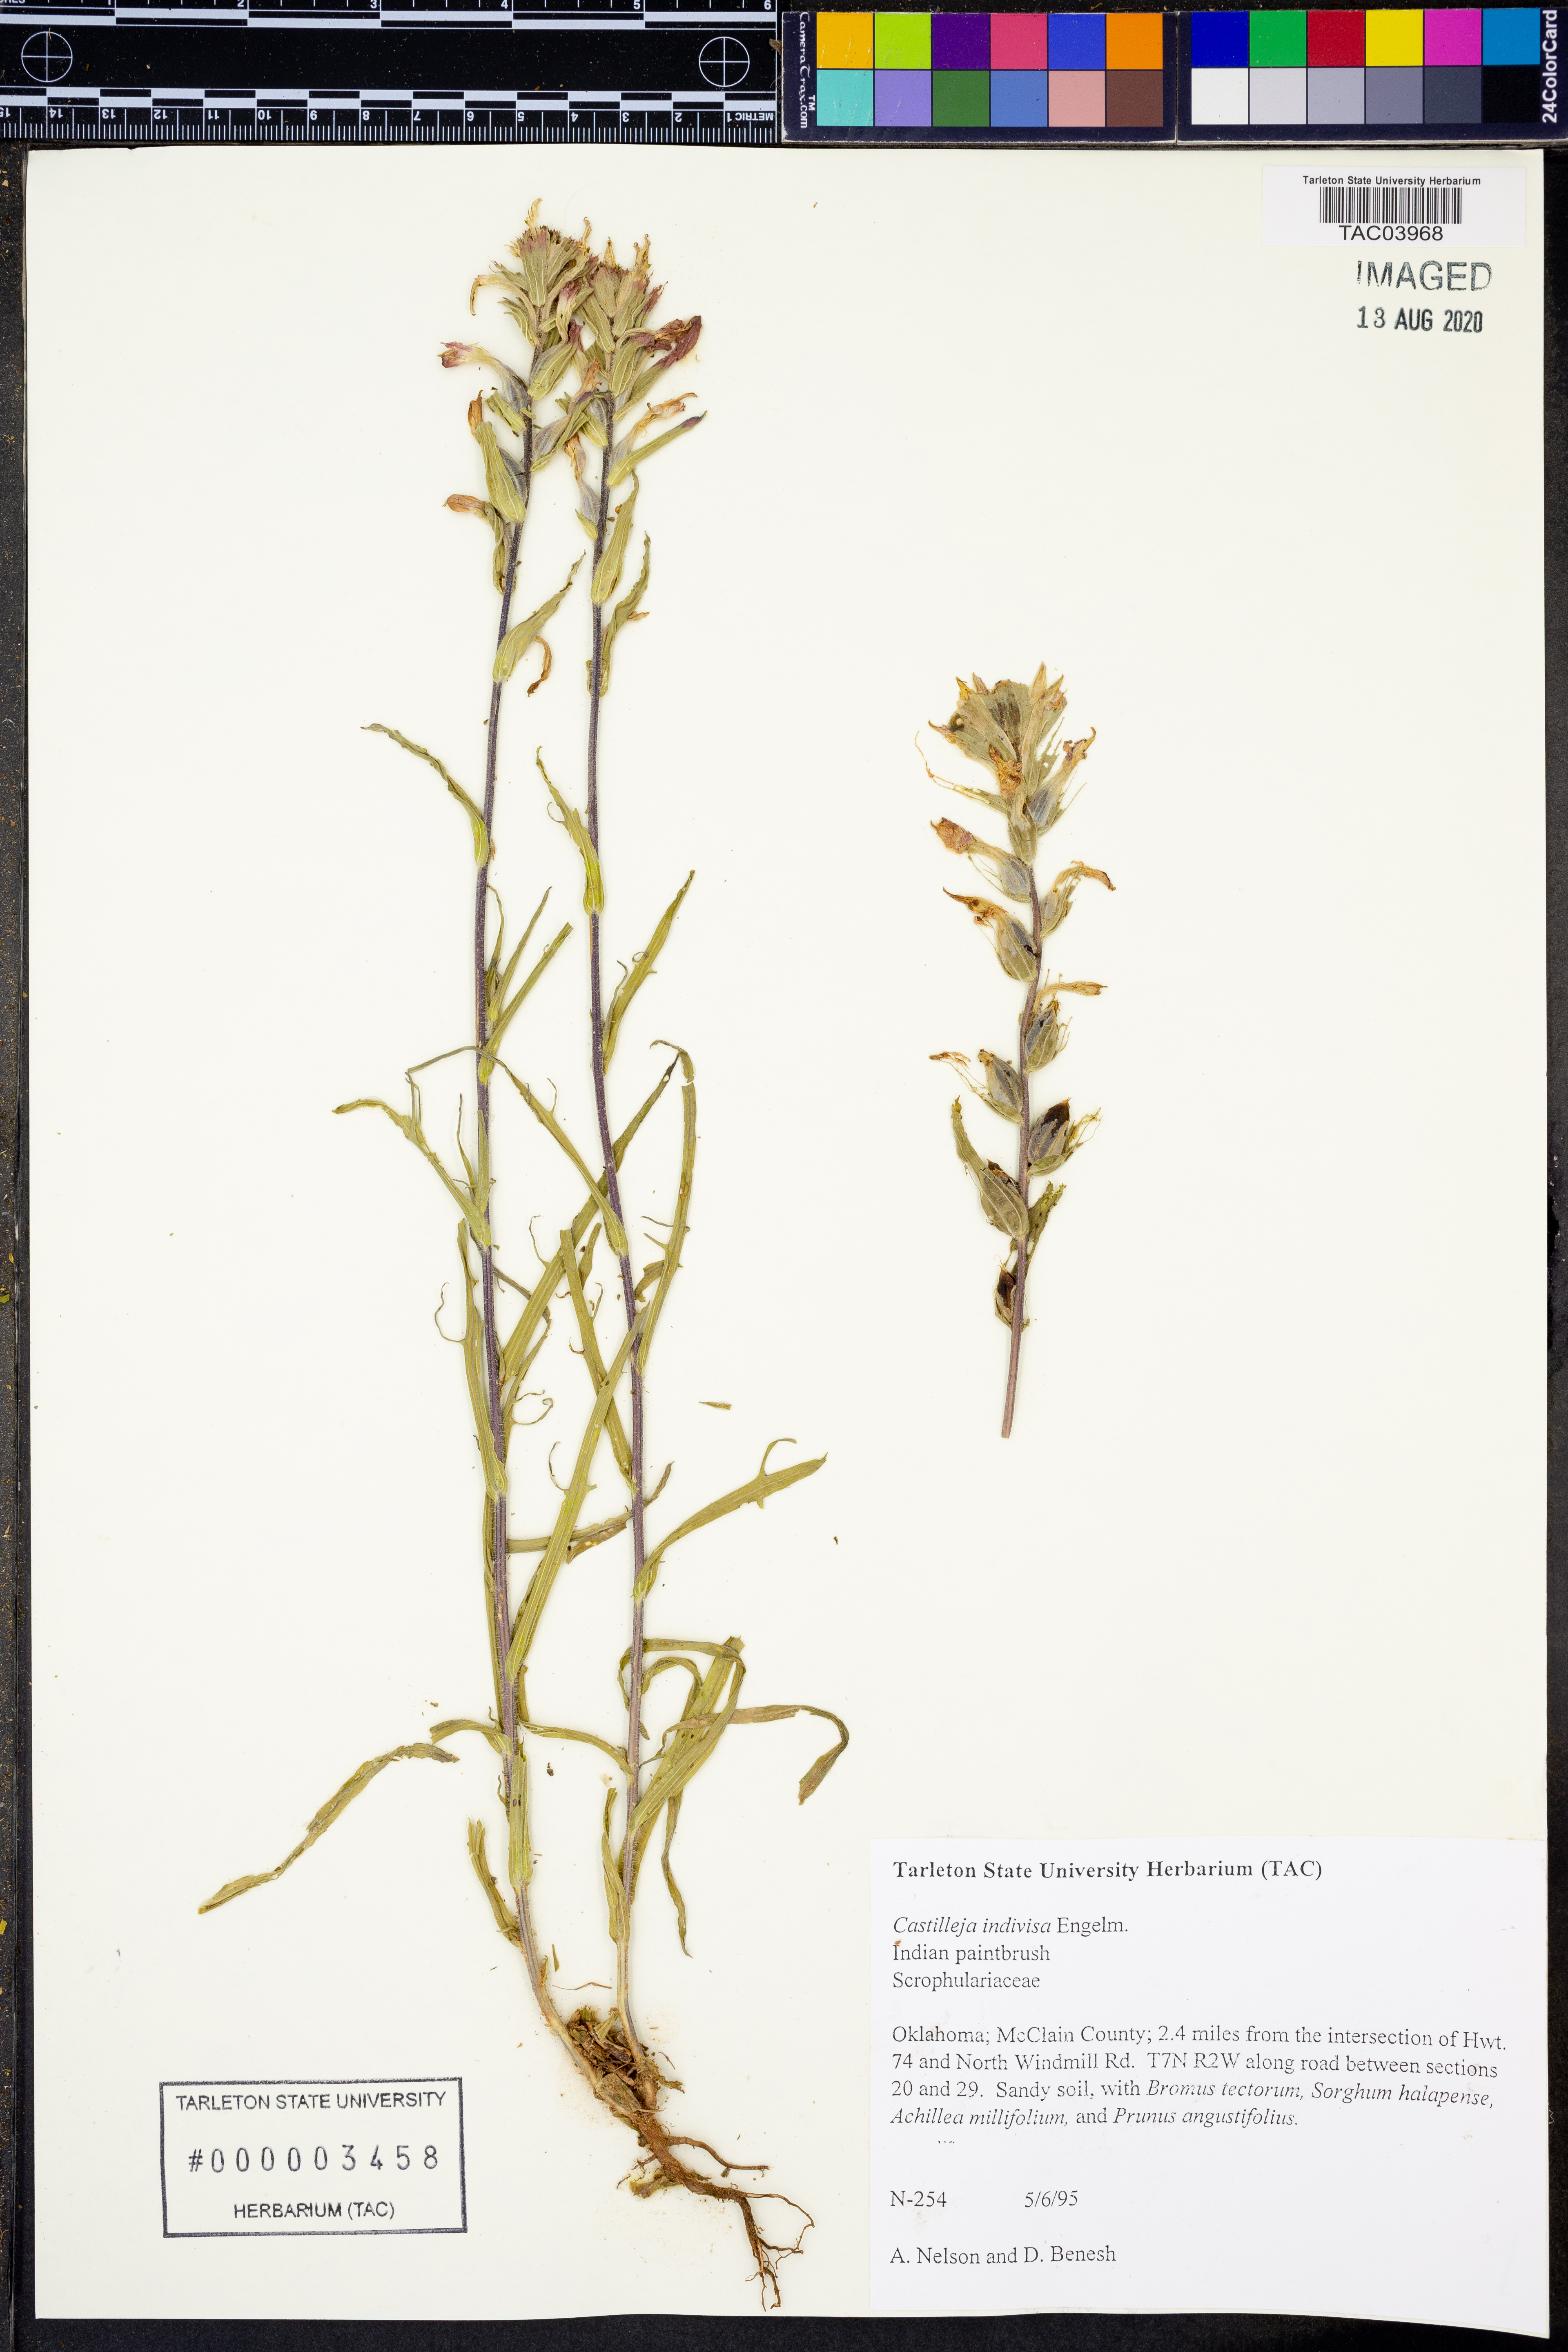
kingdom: Plantae
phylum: Tracheophyta
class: Magnoliopsida
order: Lamiales
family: Orobanchaceae
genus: Castilleja
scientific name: Castilleja indivisa
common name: Texas paintbrush
